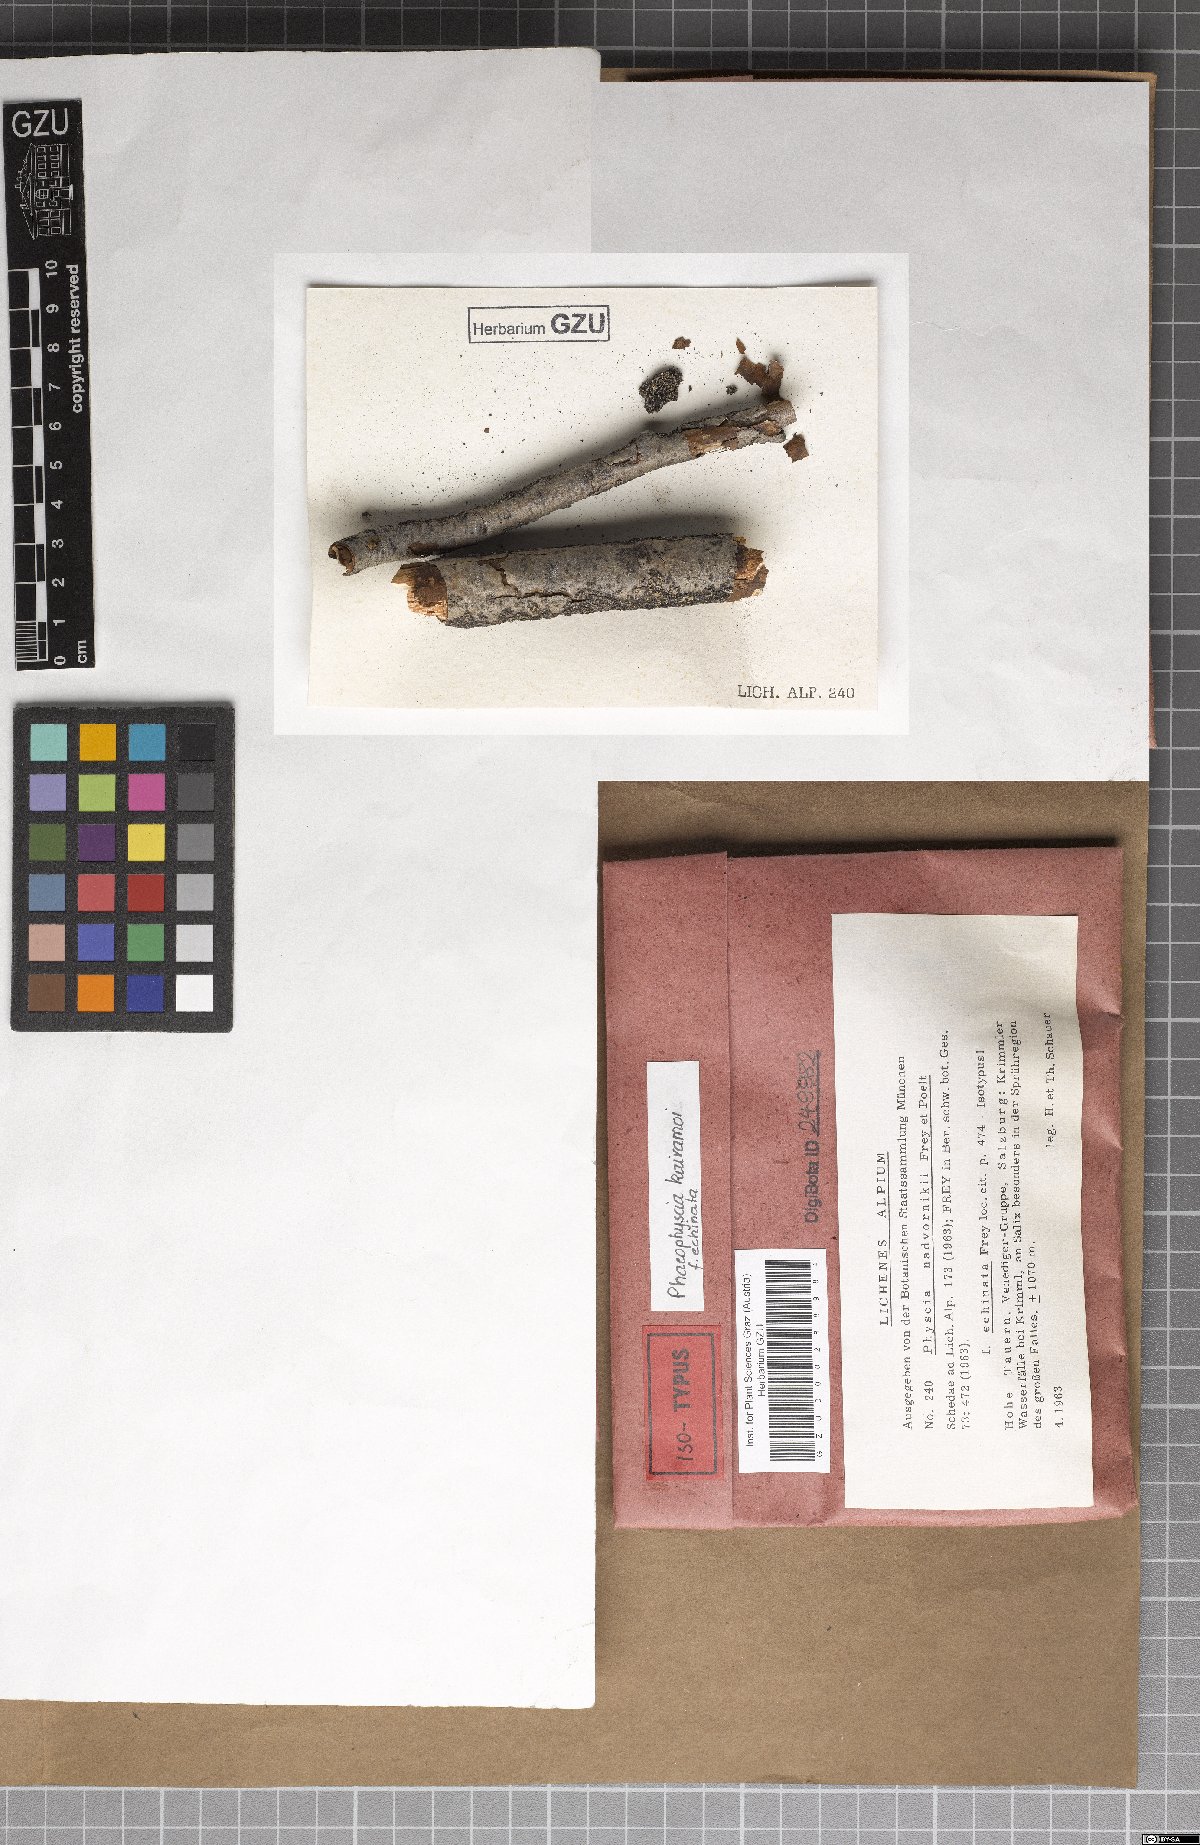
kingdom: Fungi
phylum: Ascomycota
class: Lecanoromycetes
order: Caliciales
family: Physciaceae
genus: Phaeophyscia
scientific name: Phaeophyscia kairamoi
